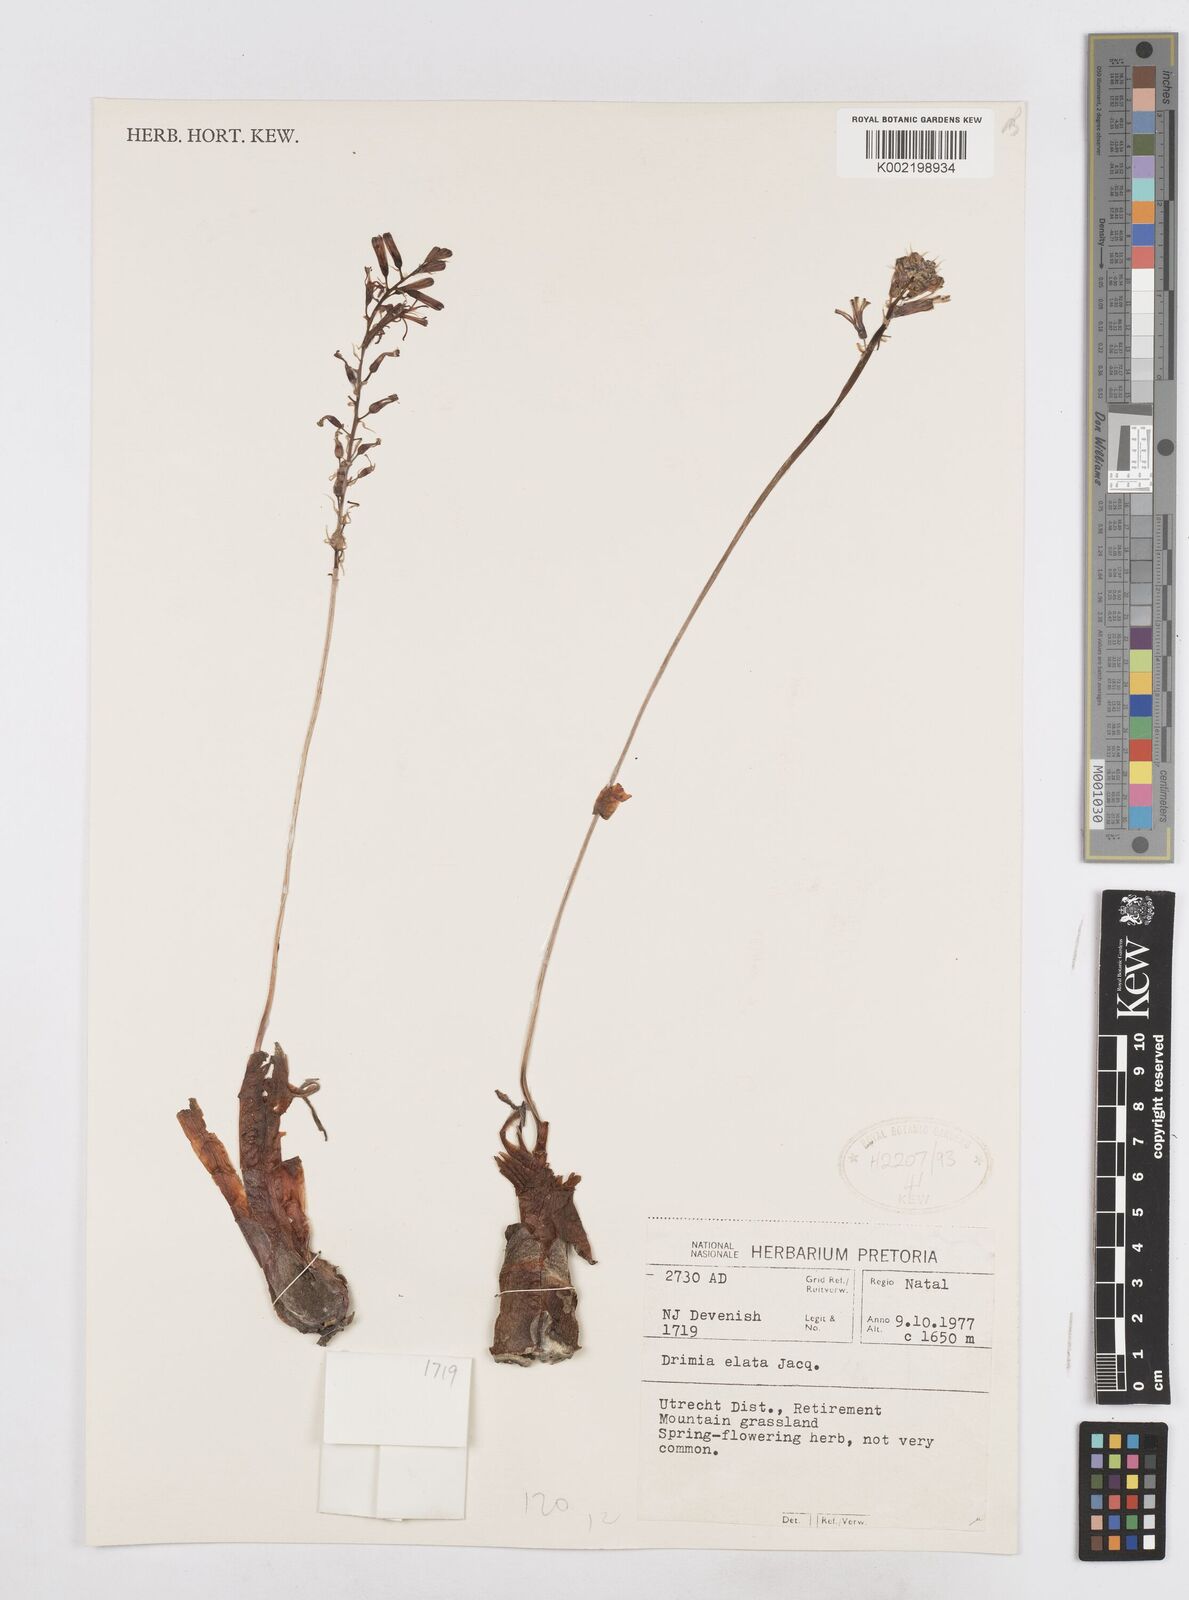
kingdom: Plantae
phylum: Tracheophyta
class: Liliopsida
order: Asparagales
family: Asparagaceae
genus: Drimia
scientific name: Drimia elata
